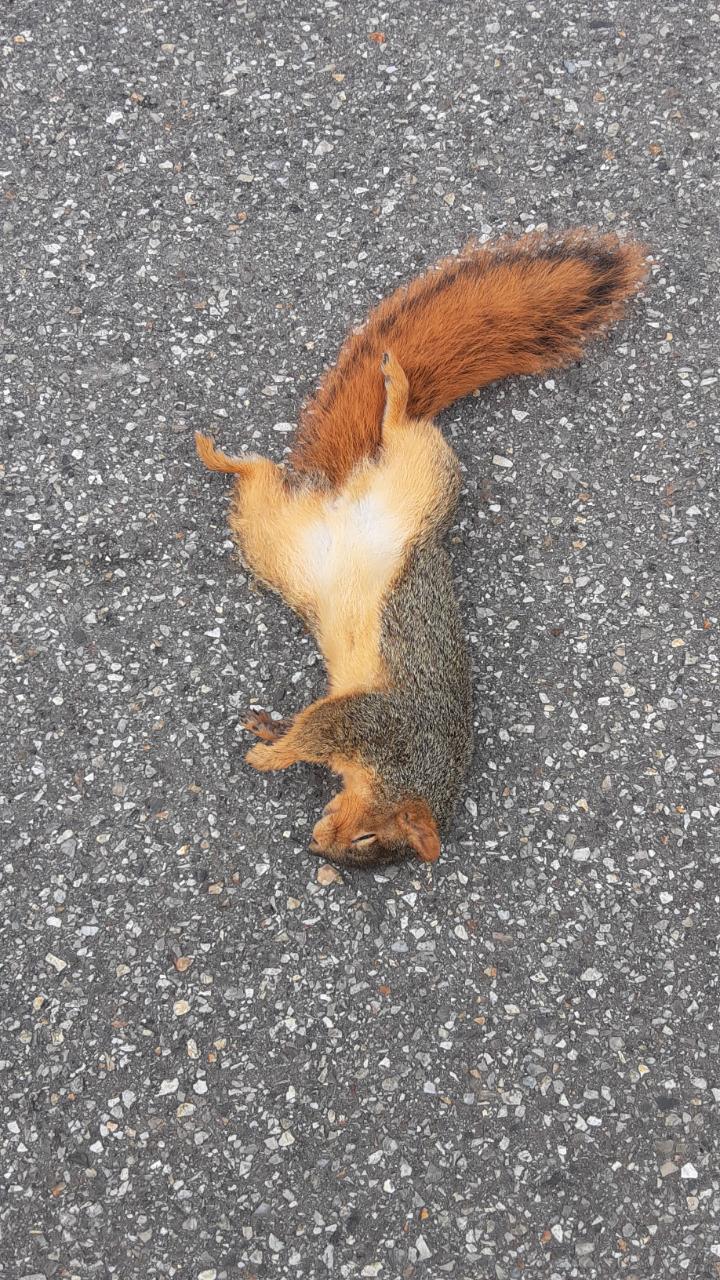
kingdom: Animalia
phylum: Chordata
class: Mammalia
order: Rodentia
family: Sciuridae
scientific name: Sciuridae
